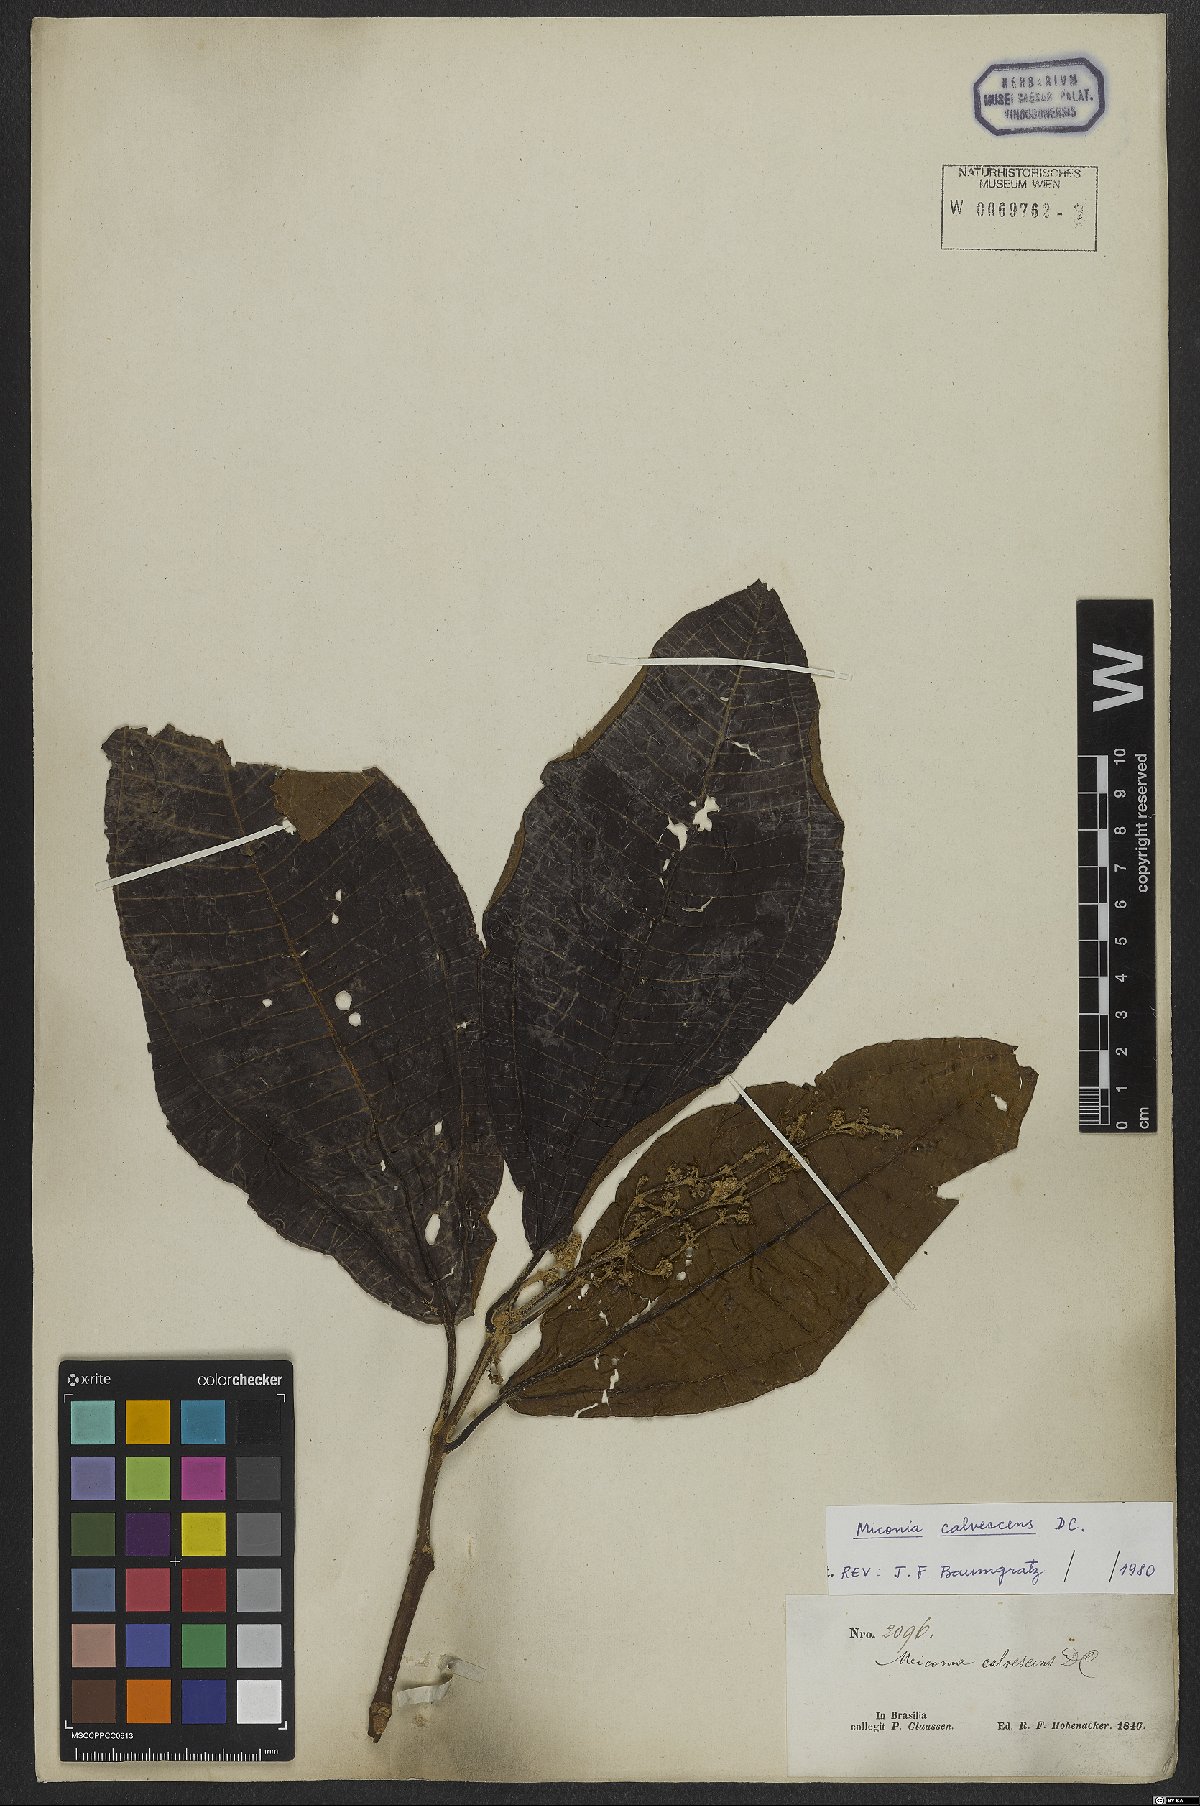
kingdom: Plantae
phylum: Tracheophyta
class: Magnoliopsida
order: Myrtales
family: Melastomataceae
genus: Miconia
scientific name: Miconia calvescens
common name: Purple plague
